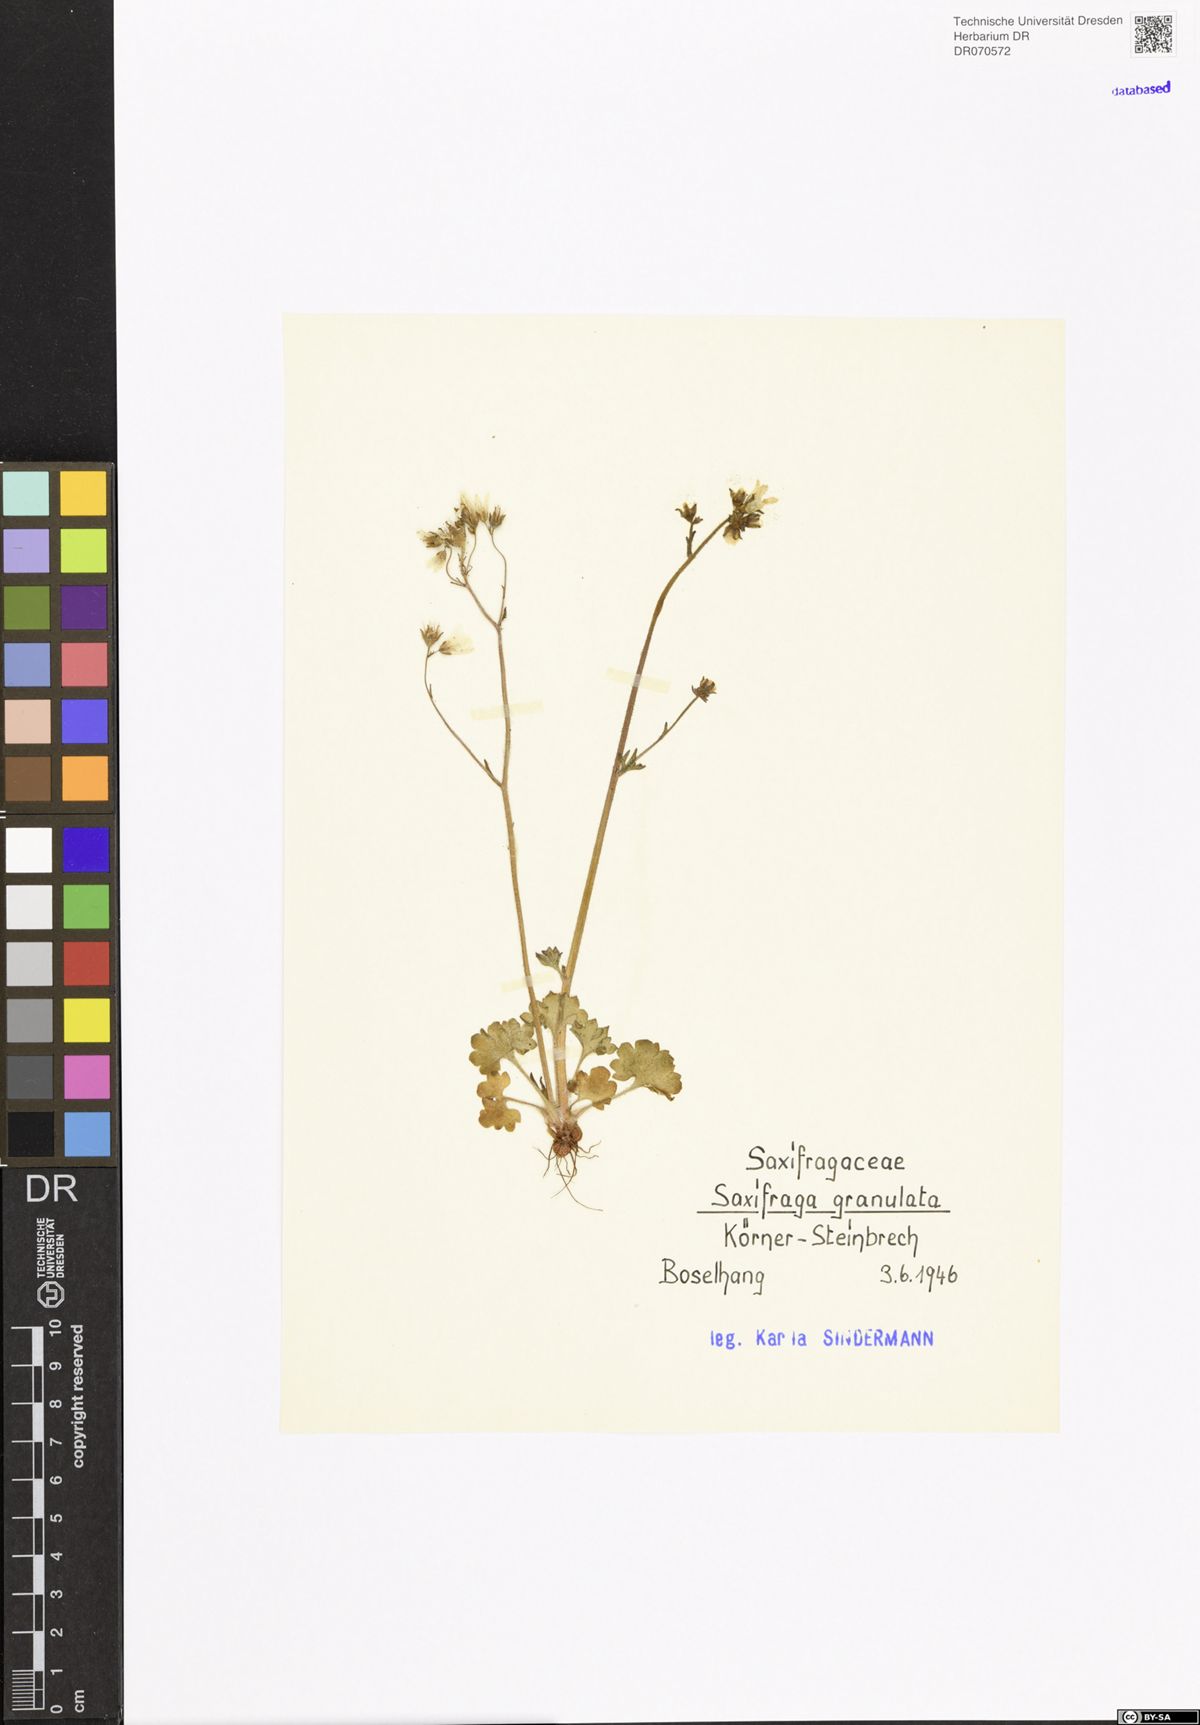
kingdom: Plantae
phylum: Tracheophyta
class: Magnoliopsida
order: Saxifragales
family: Saxifragaceae
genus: Saxifraga
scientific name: Saxifraga granulata
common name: Meadow saxifrage
